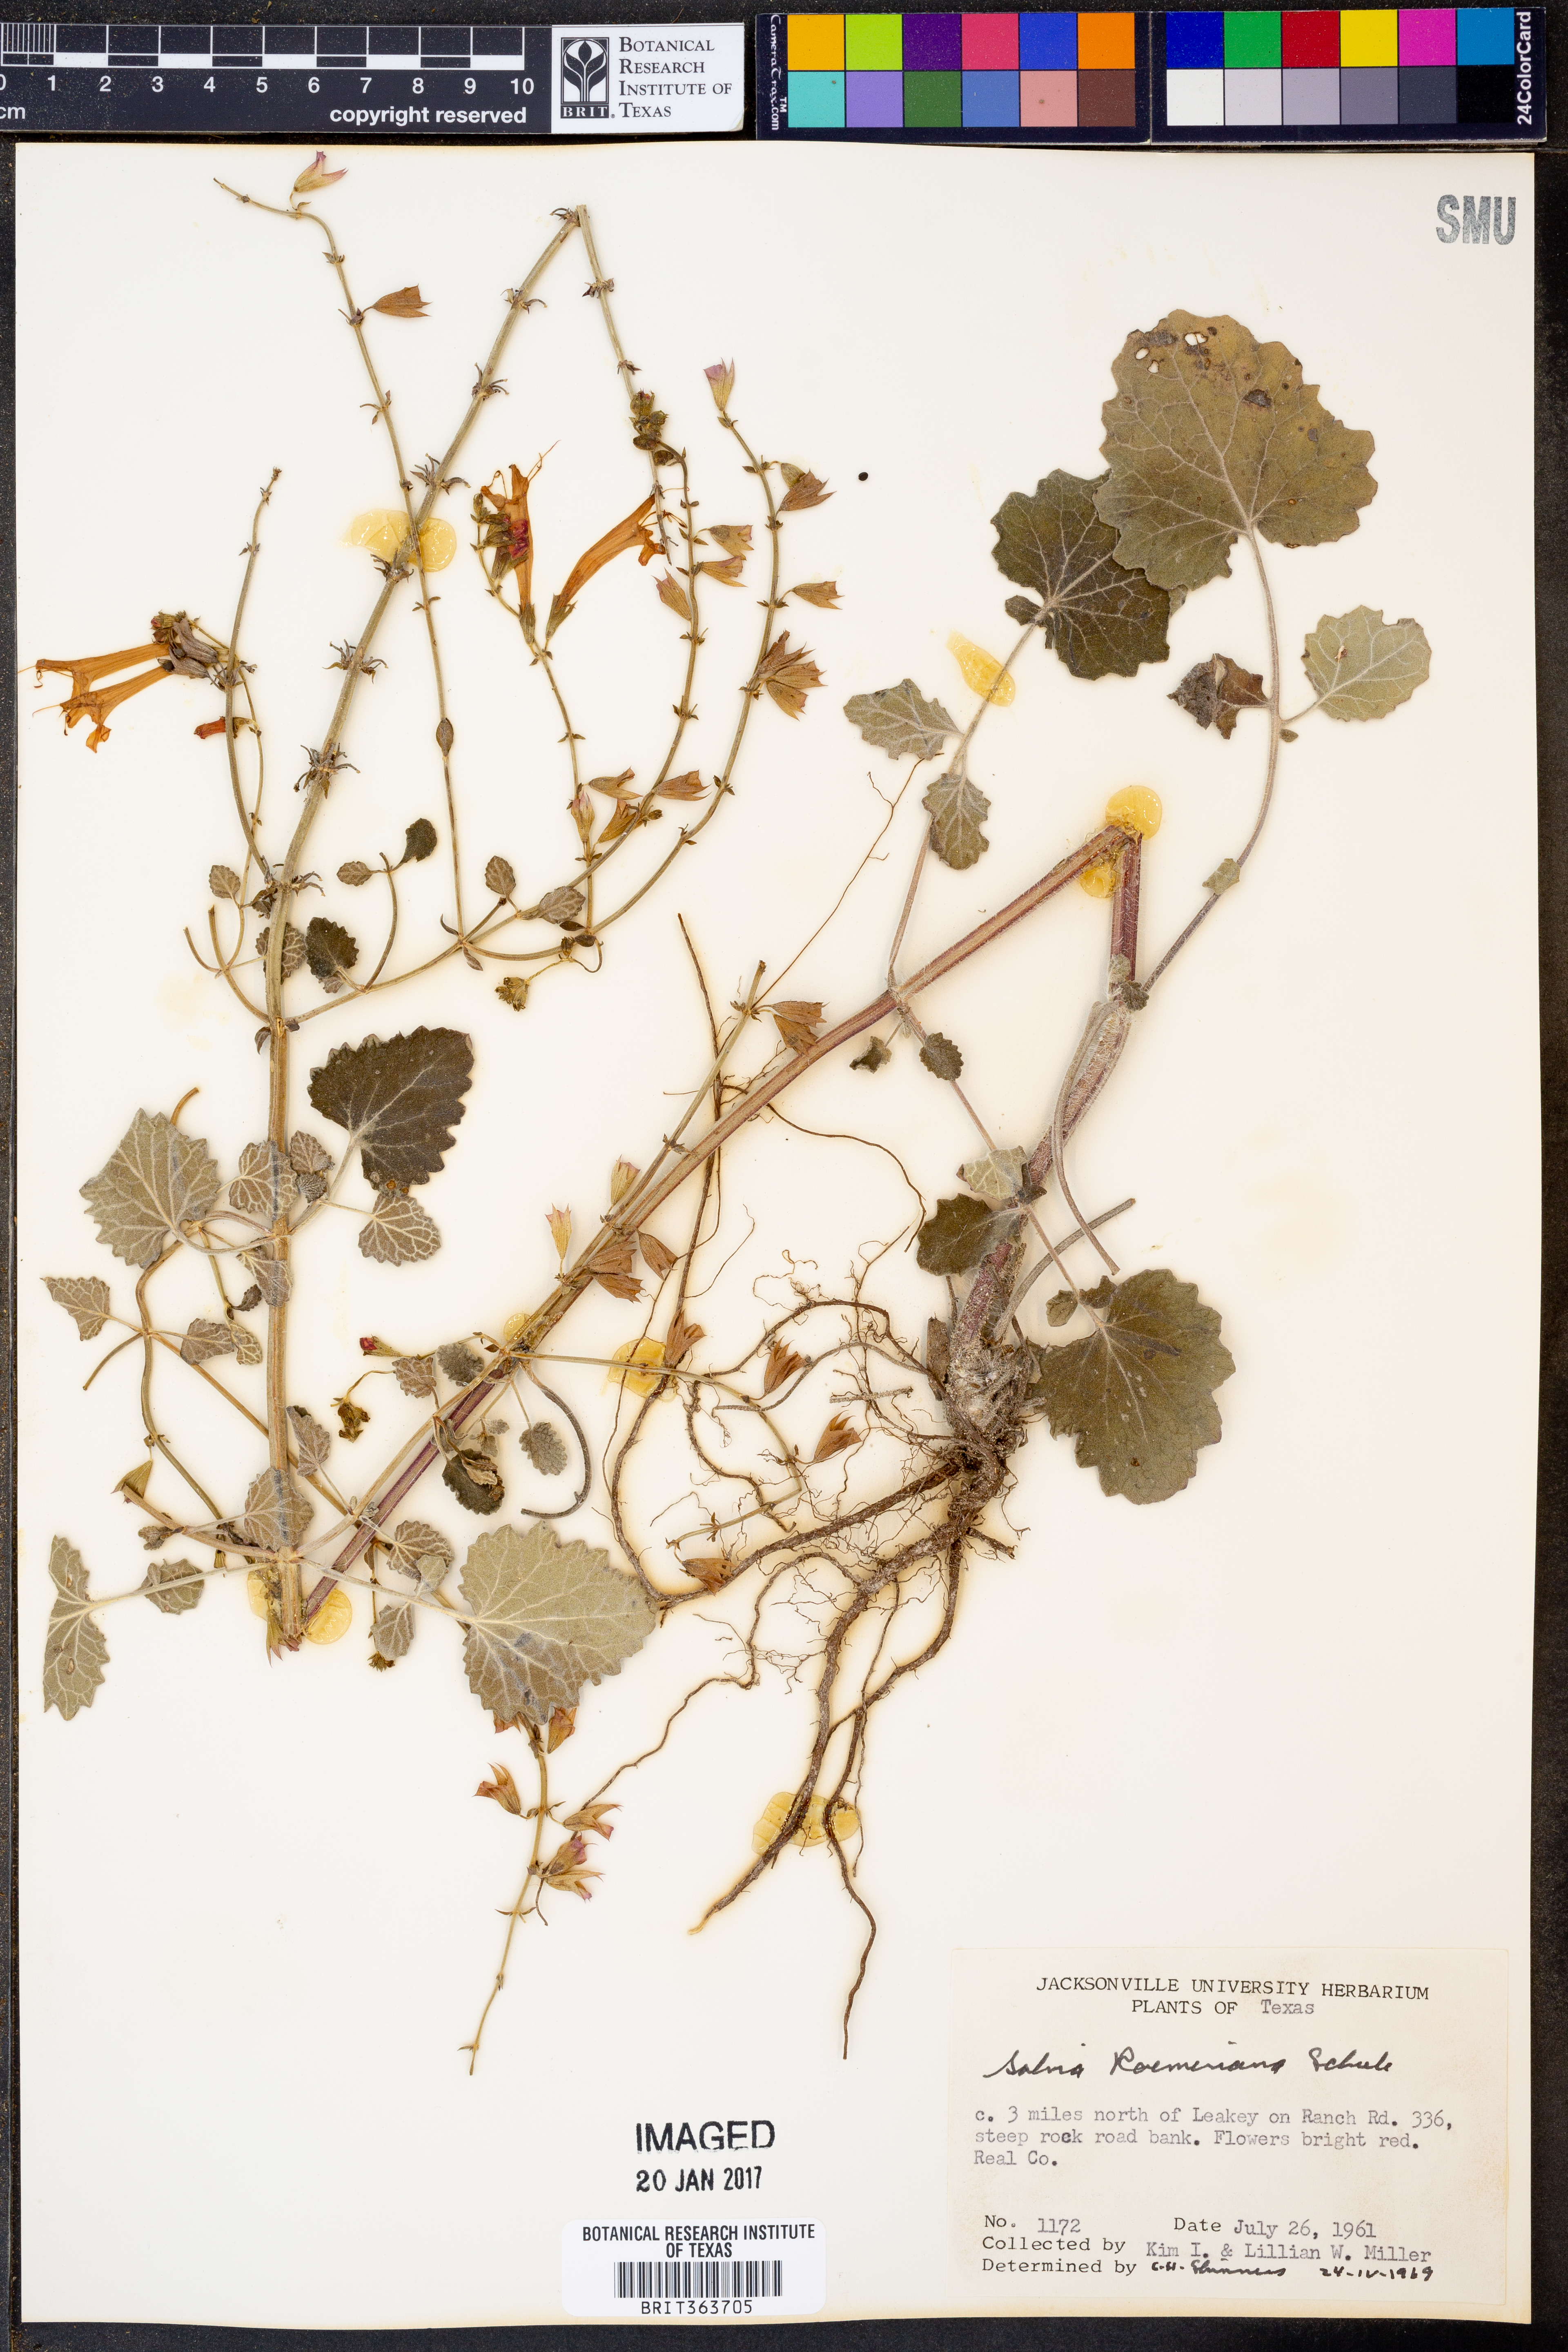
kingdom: Plantae
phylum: Tracheophyta
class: Magnoliopsida
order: Lamiales
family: Lamiaceae
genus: Salvia
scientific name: Salvia roemeriana
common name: Cedar sage
